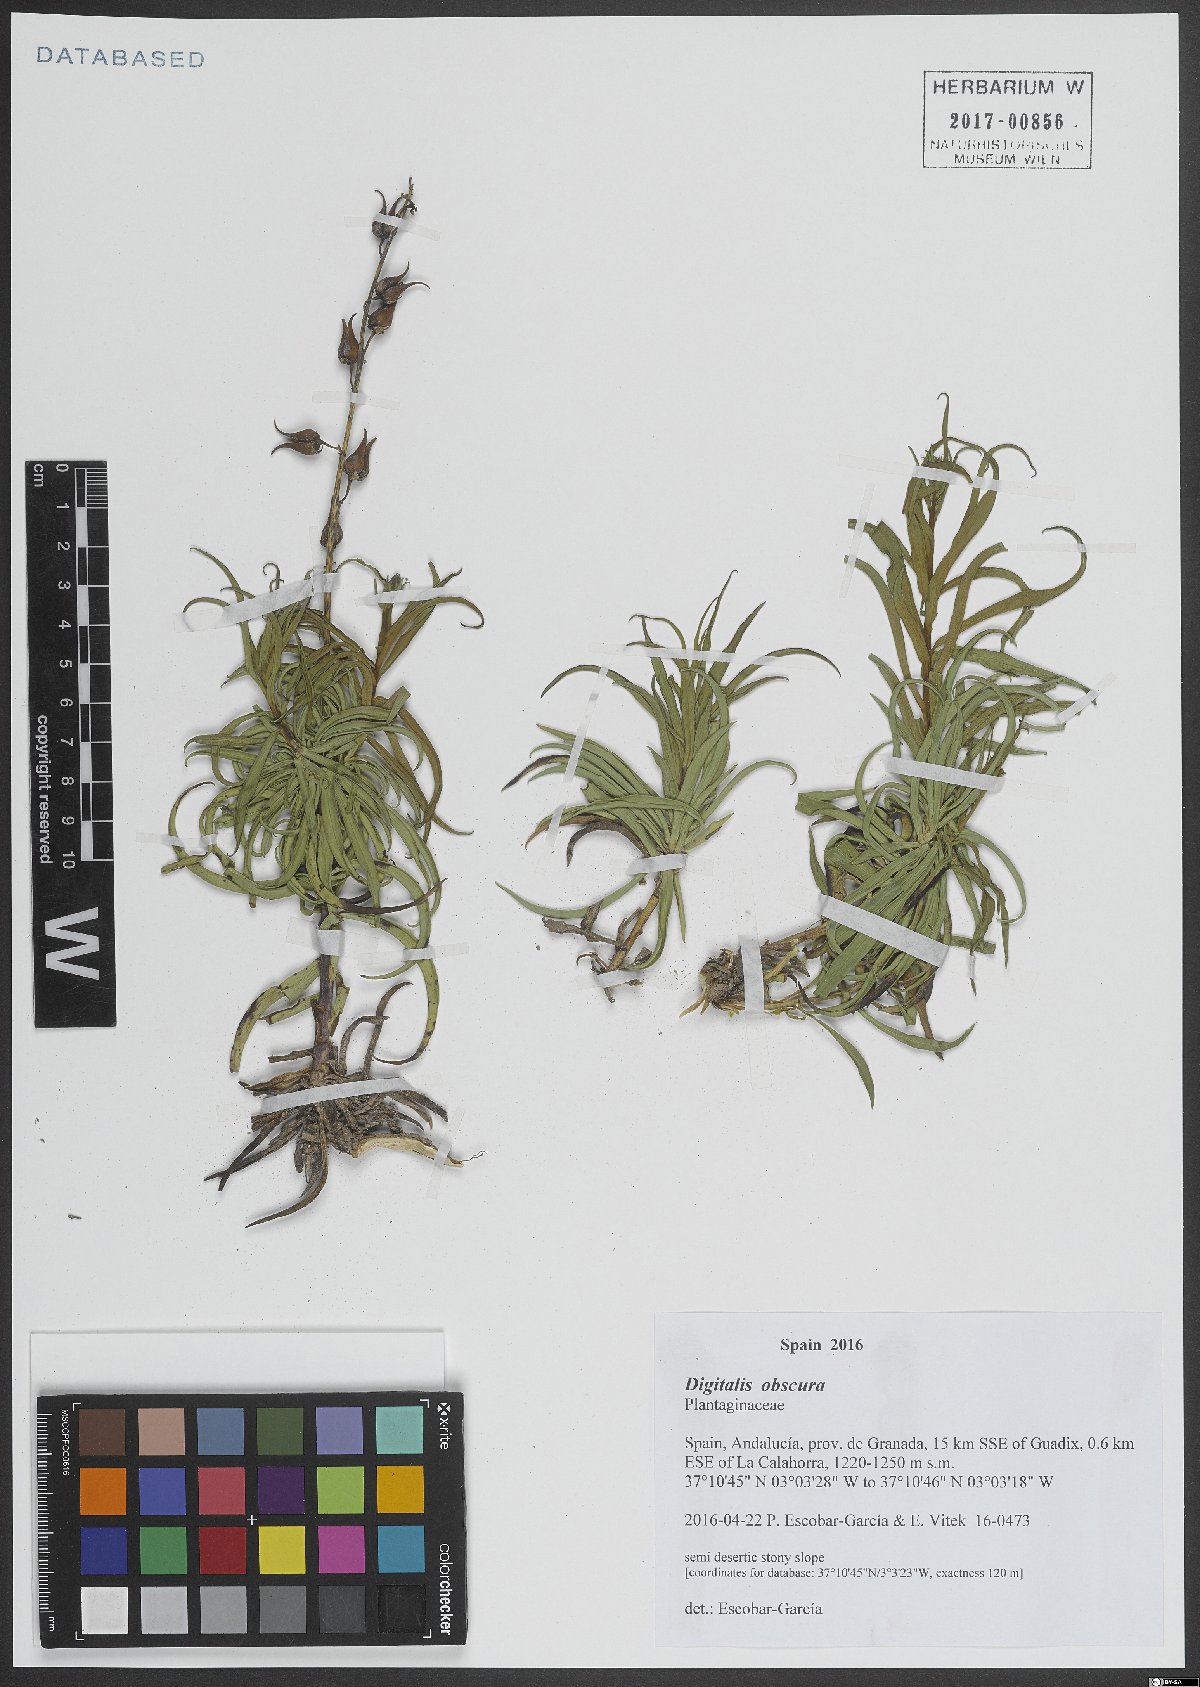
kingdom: Plantae
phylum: Tracheophyta
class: Magnoliopsida
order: Lamiales
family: Plantaginaceae
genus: Digitalis
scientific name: Digitalis obscura
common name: Willow-leaf foxglove
